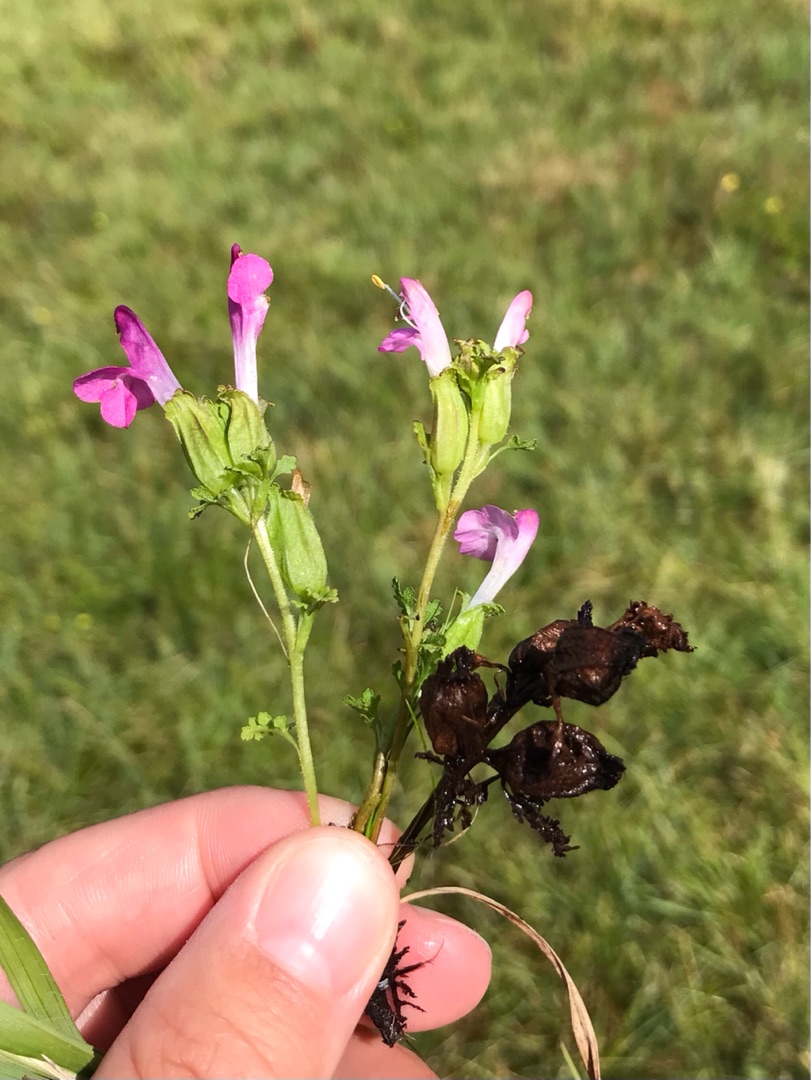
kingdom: Plantae
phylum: Tracheophyta
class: Magnoliopsida
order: Lamiales
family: Orobanchaceae
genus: Pedicularis
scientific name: Pedicularis palustris
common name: Eng-troldurt
